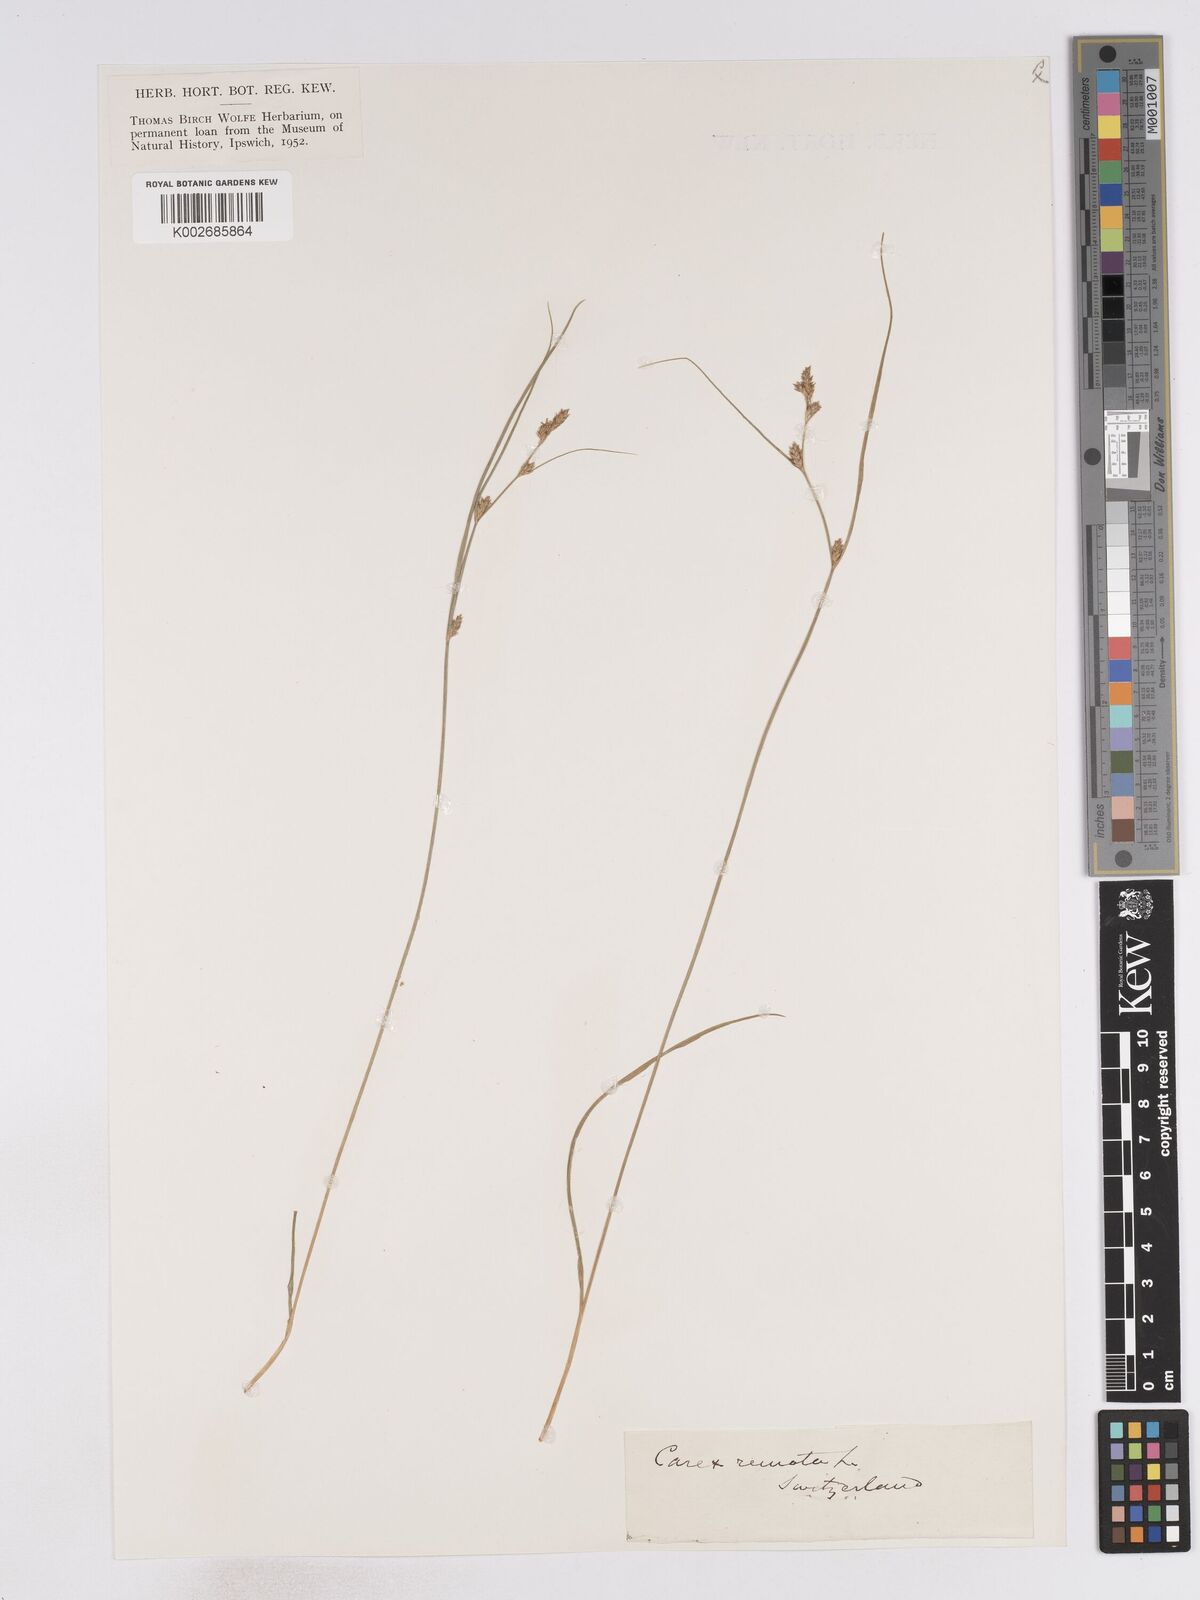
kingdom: Plantae
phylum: Tracheophyta
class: Liliopsida
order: Poales
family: Cyperaceae
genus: Carex
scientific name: Carex remota
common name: Remote sedge
